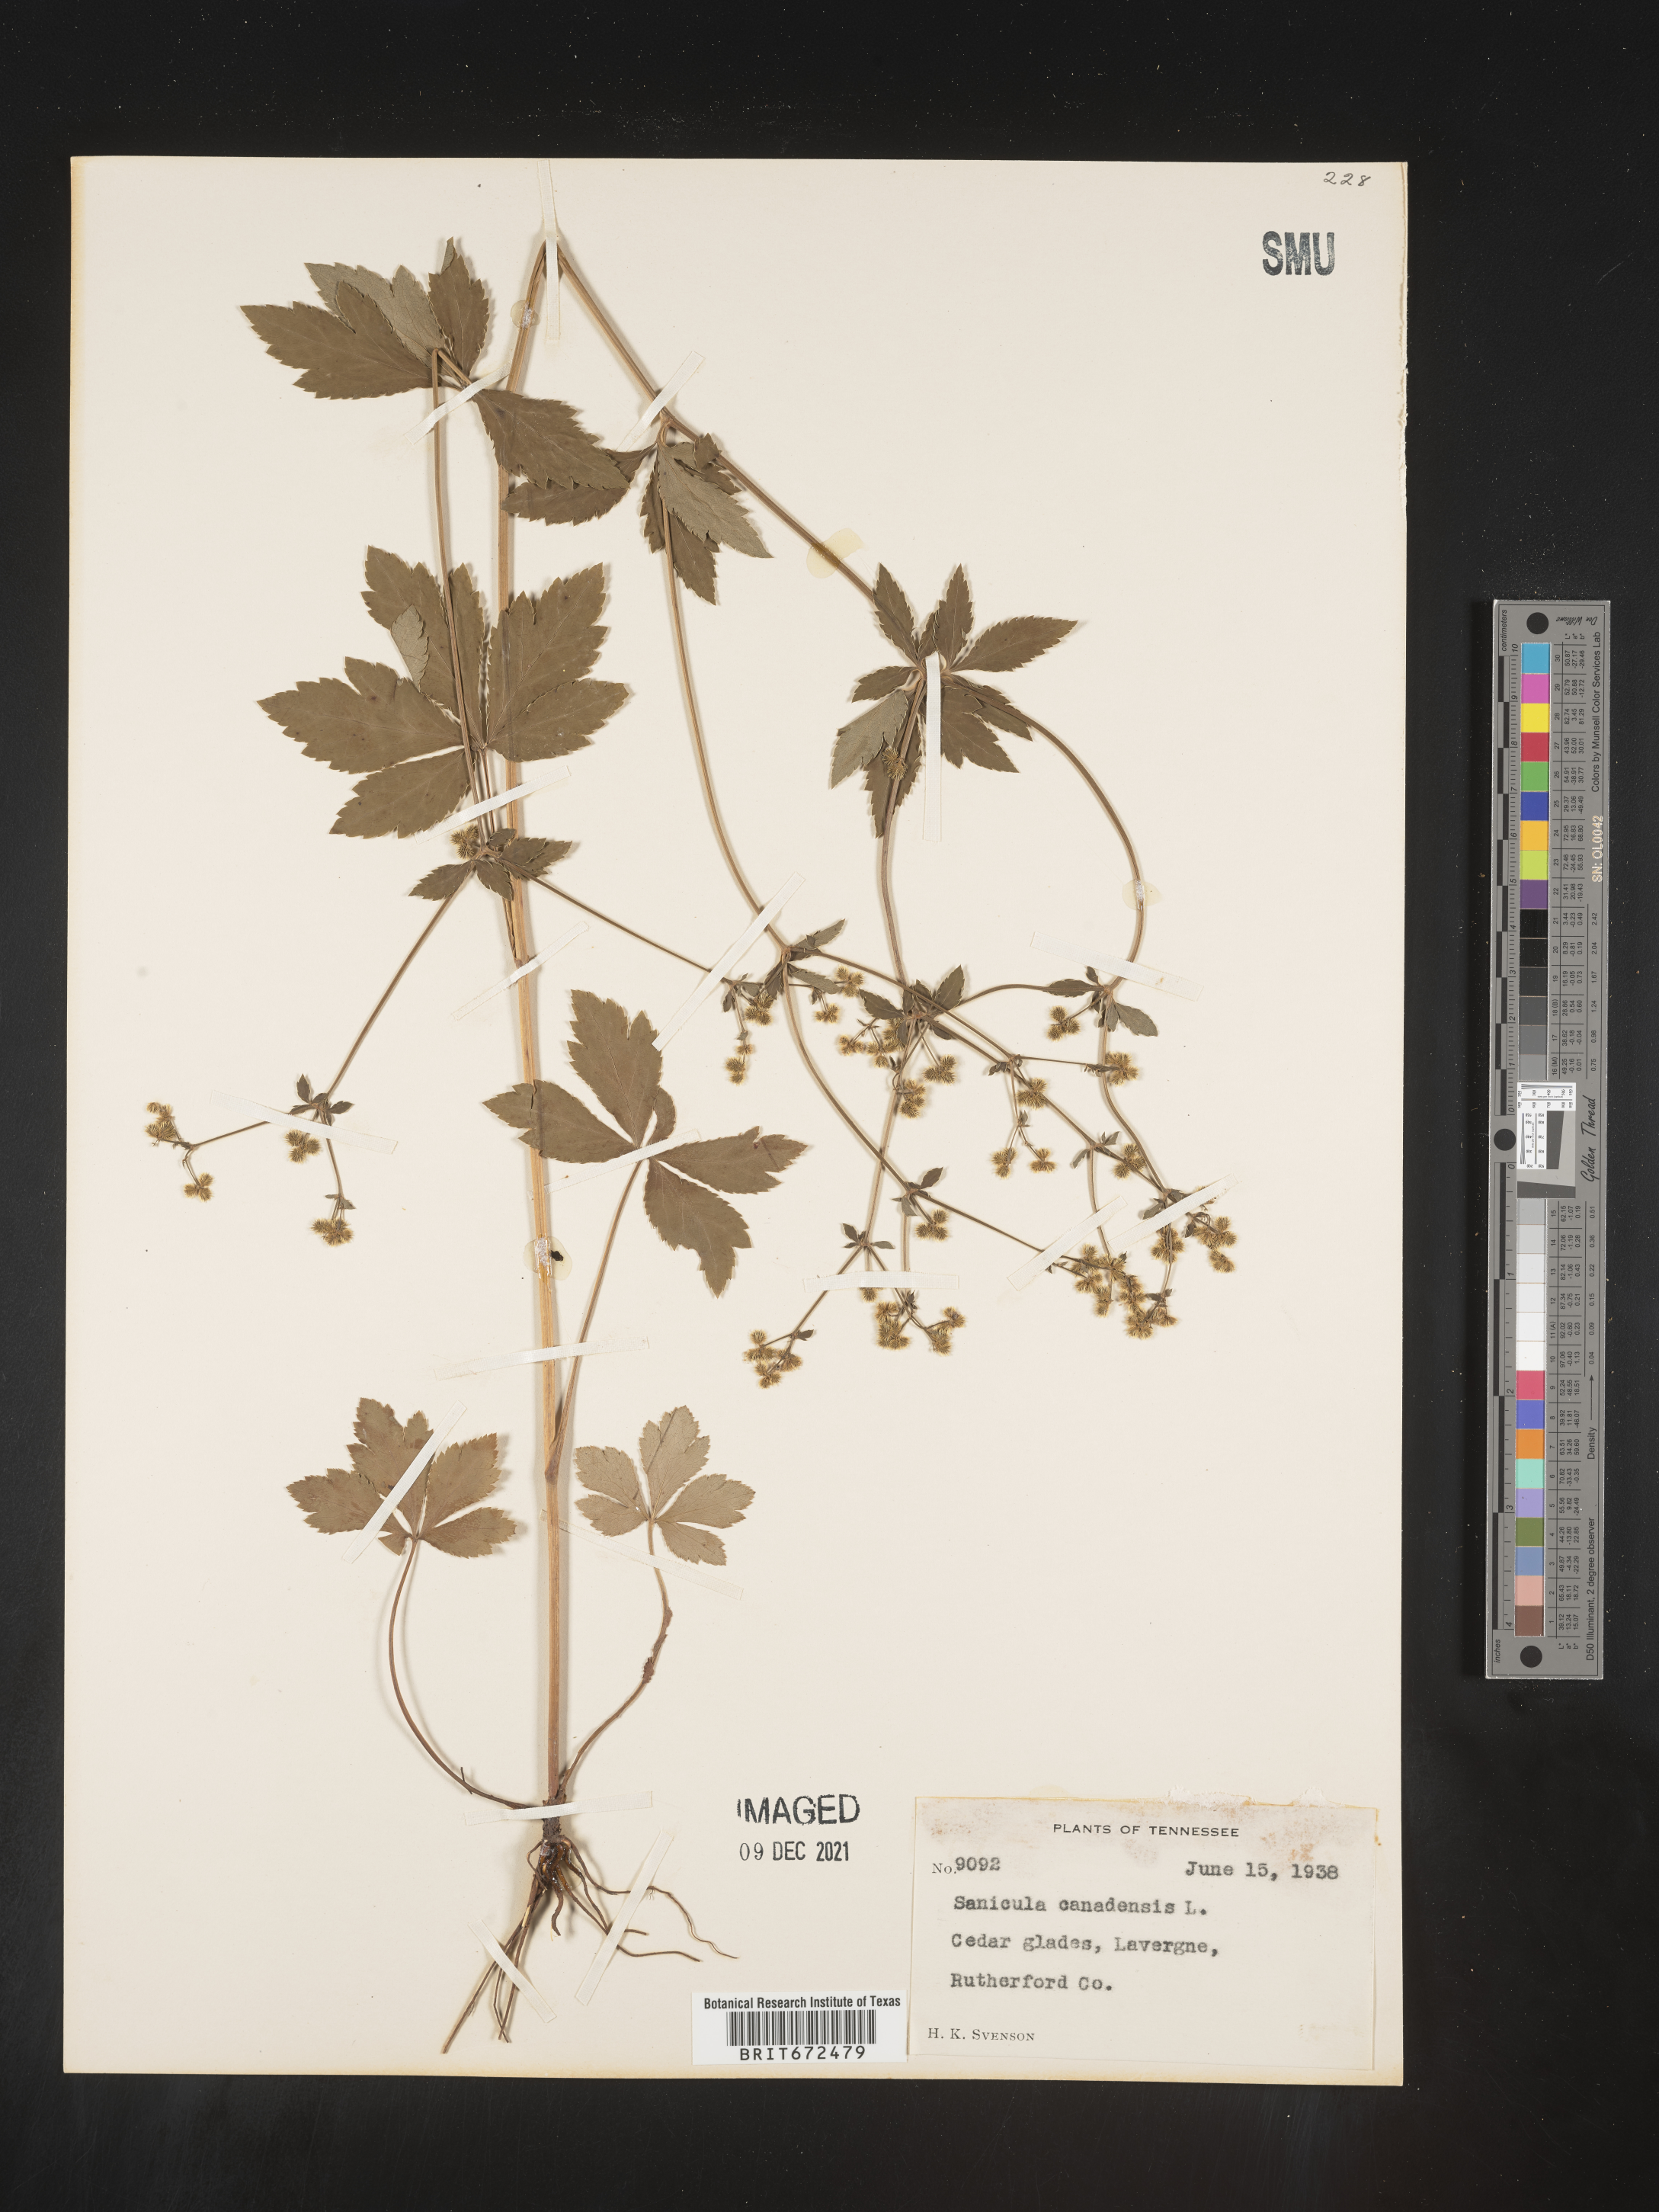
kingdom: Plantae
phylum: Tracheophyta
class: Magnoliopsida
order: Apiales
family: Apiaceae
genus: Sanicula
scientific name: Sanicula canadensis
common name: Canada sanicle
